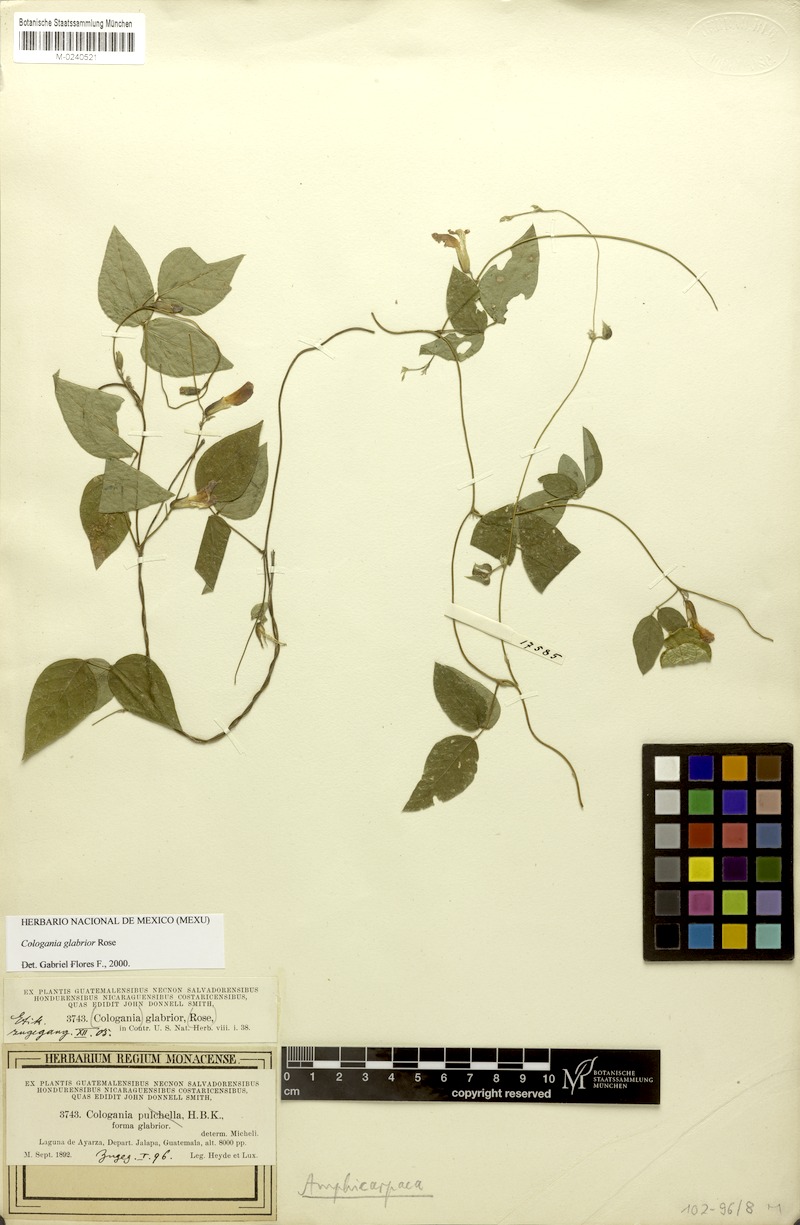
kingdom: Plantae
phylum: Tracheophyta
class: Magnoliopsida
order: Fabales
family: Fabaceae
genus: Cologania
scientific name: Cologania broussonetii
